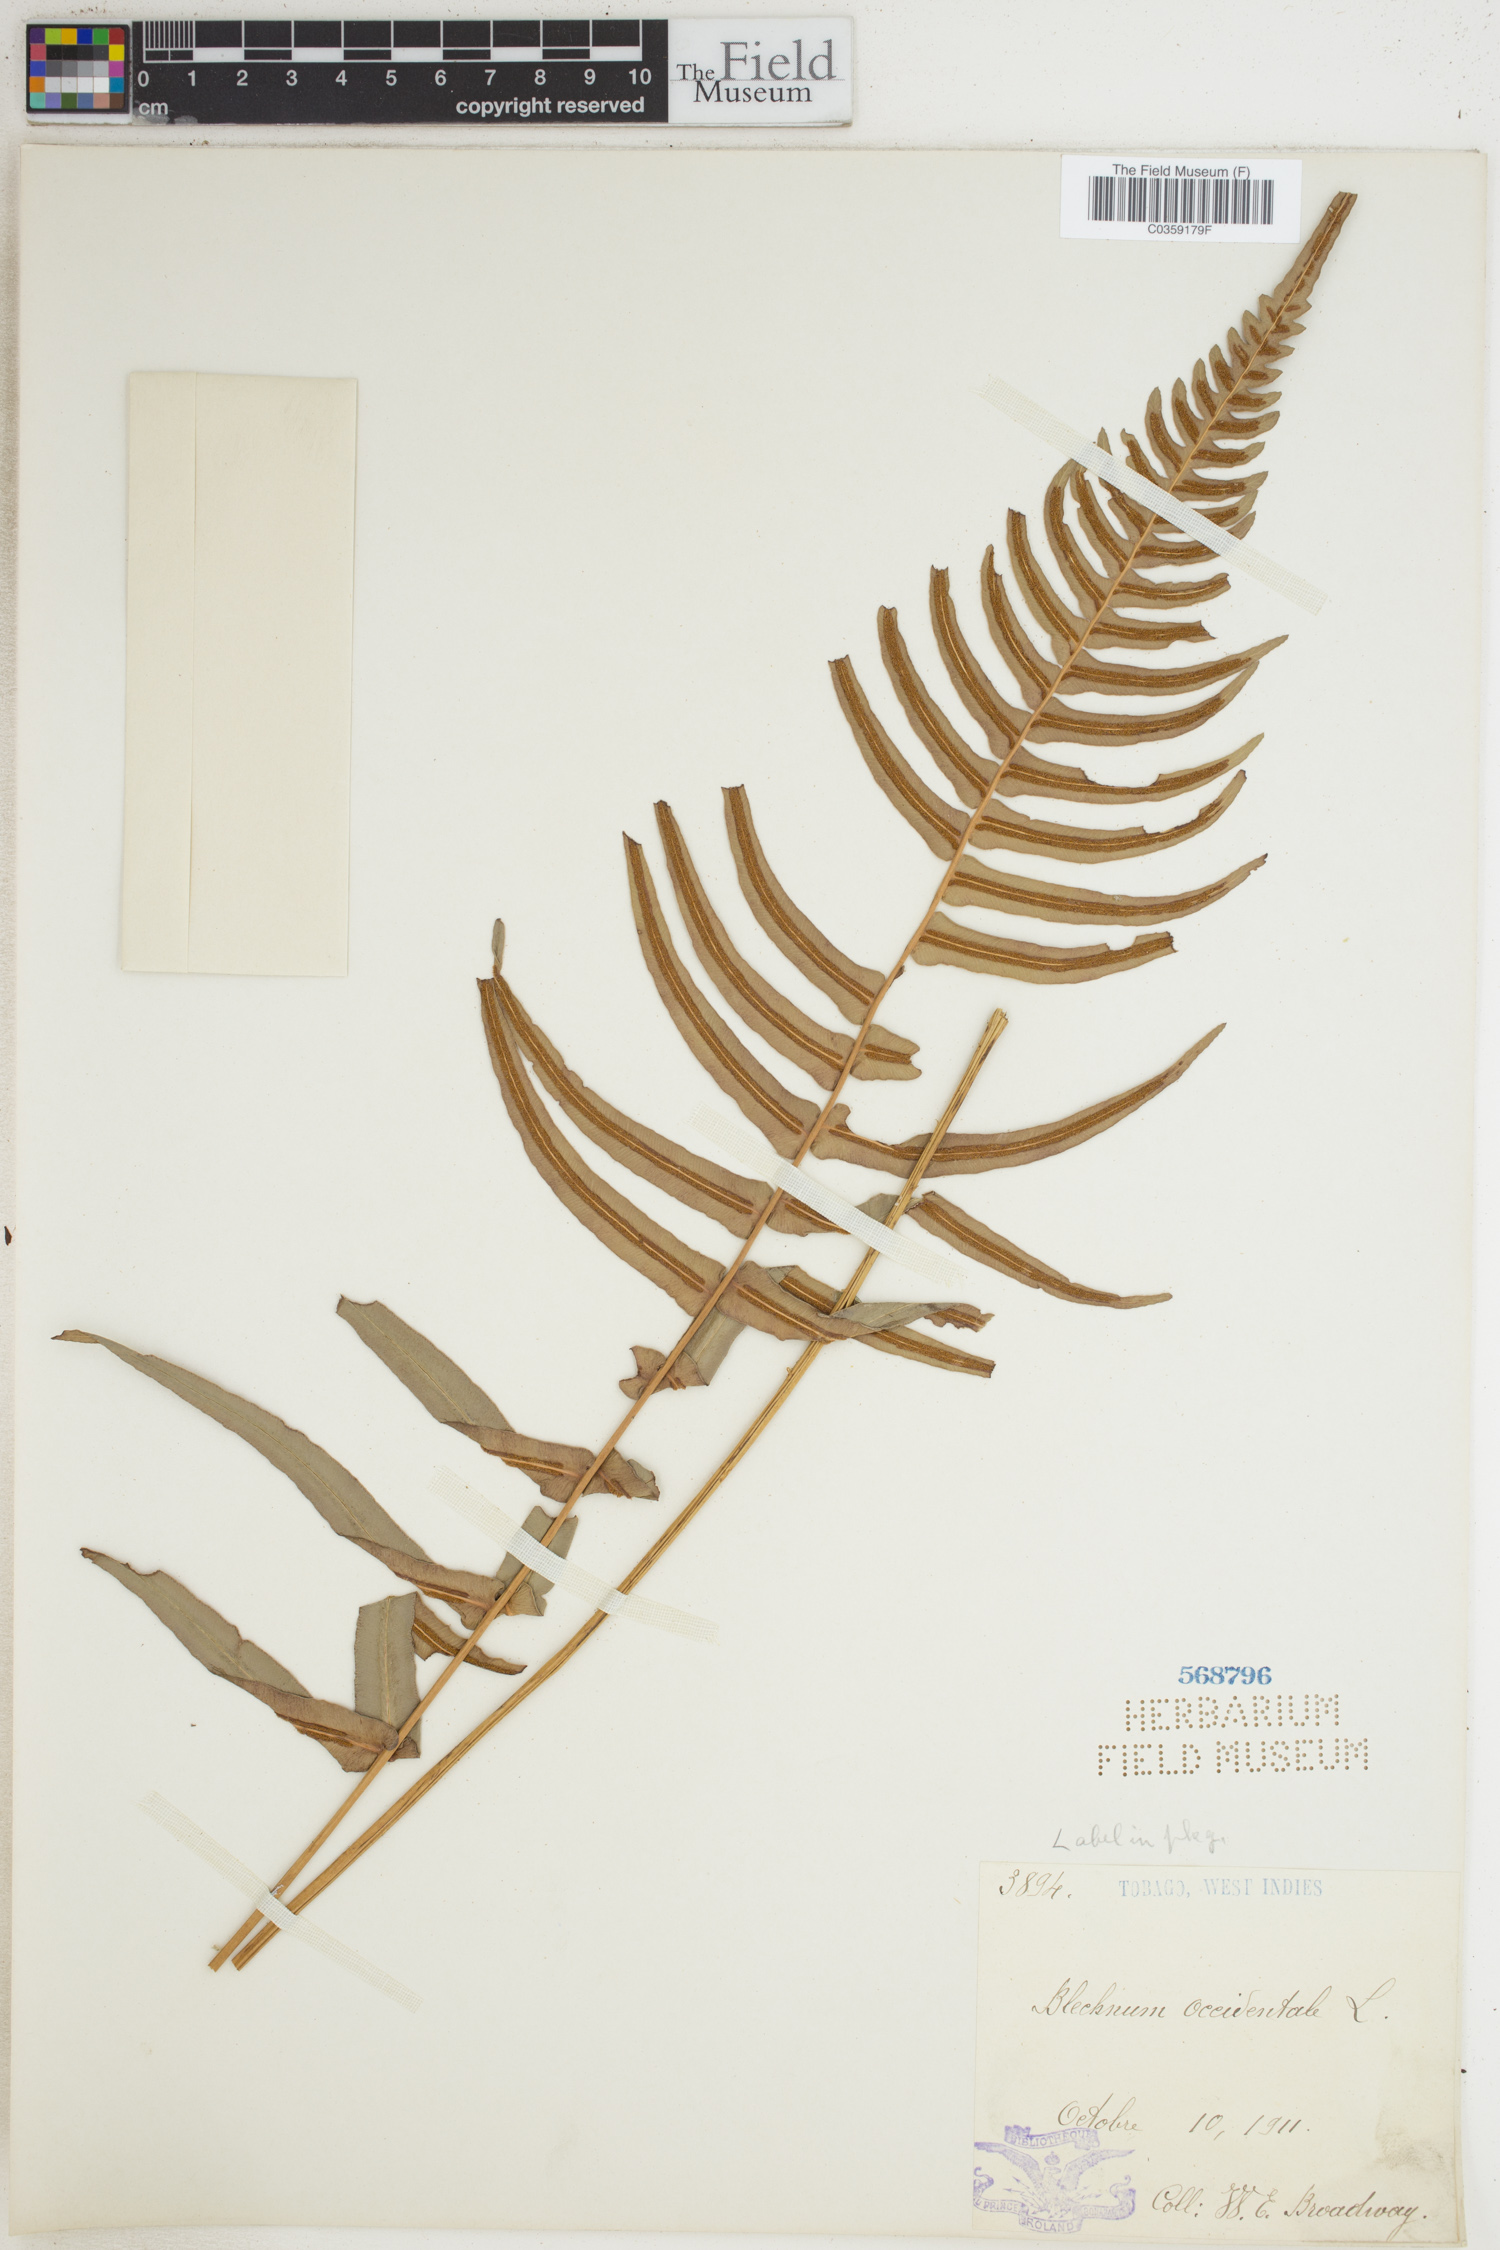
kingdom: Plantae
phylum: Tracheophyta
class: Polypodiopsida
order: Polypodiales
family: Blechnaceae
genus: Blechnum
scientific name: Blechnum occidentale
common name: Hammock fern
